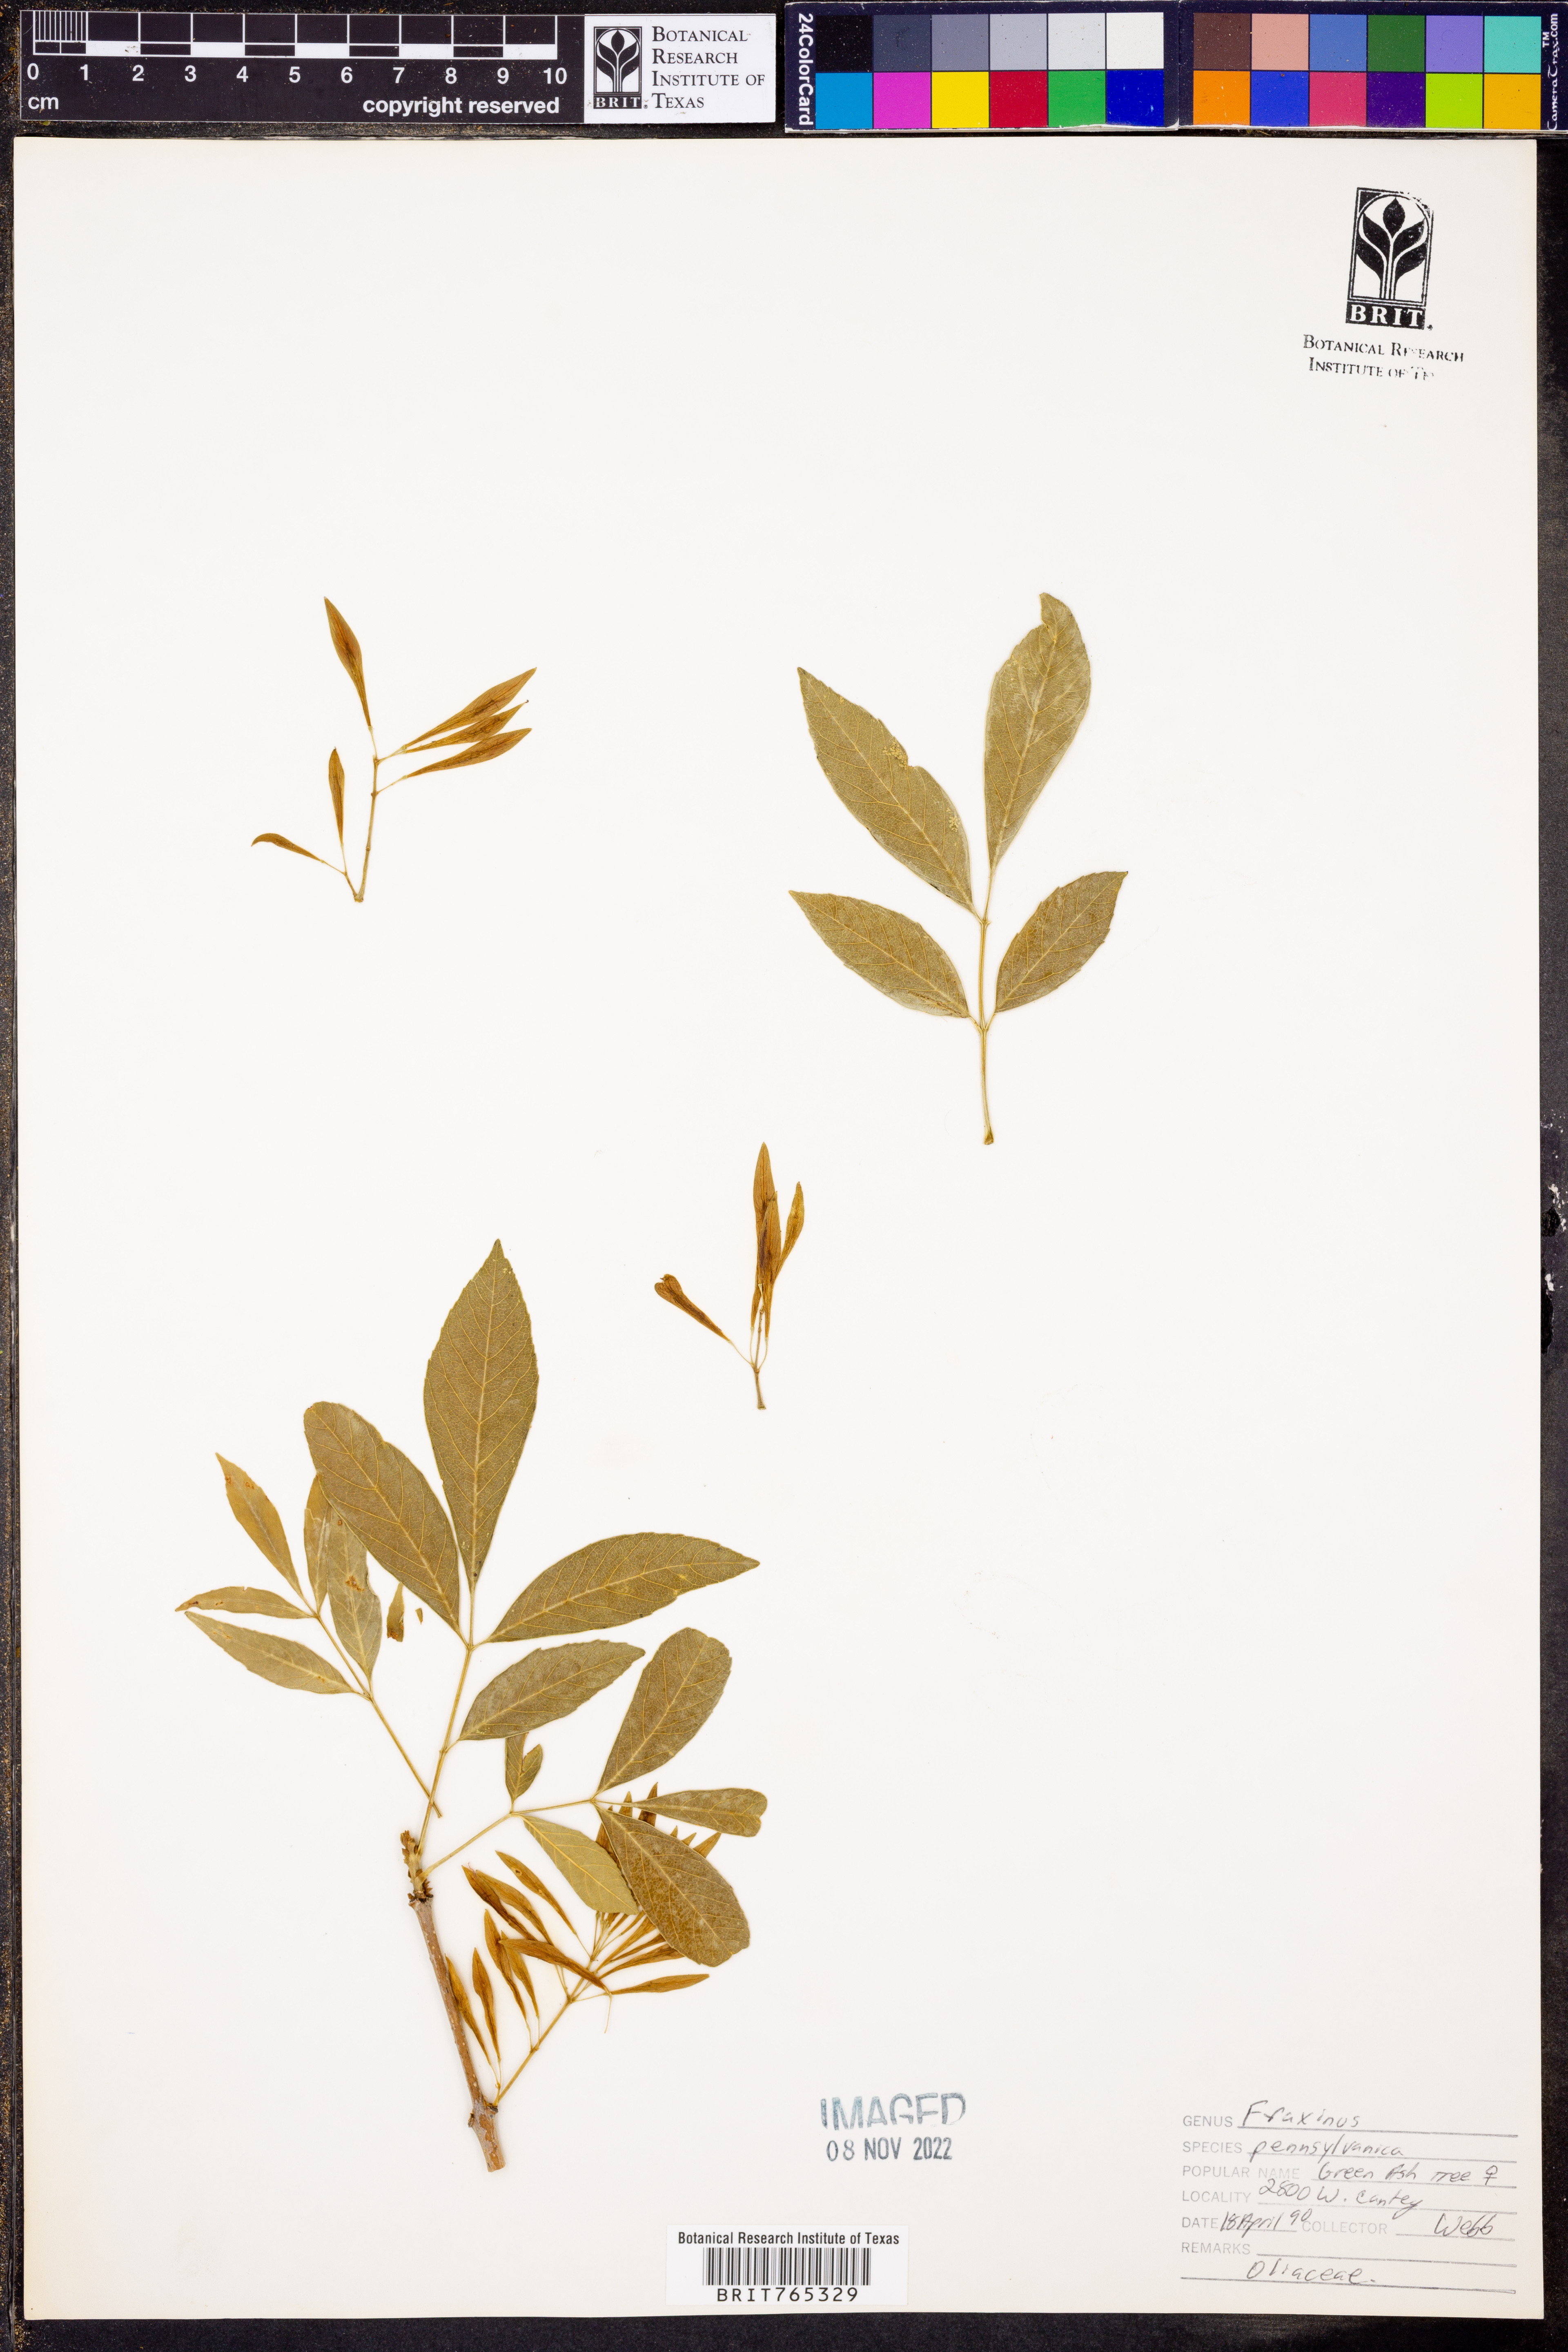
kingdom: Plantae
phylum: Tracheophyta
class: Magnoliopsida
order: Lamiales
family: Oleaceae
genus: Fraxinus
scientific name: Fraxinus pennsylvanica
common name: Green ash
